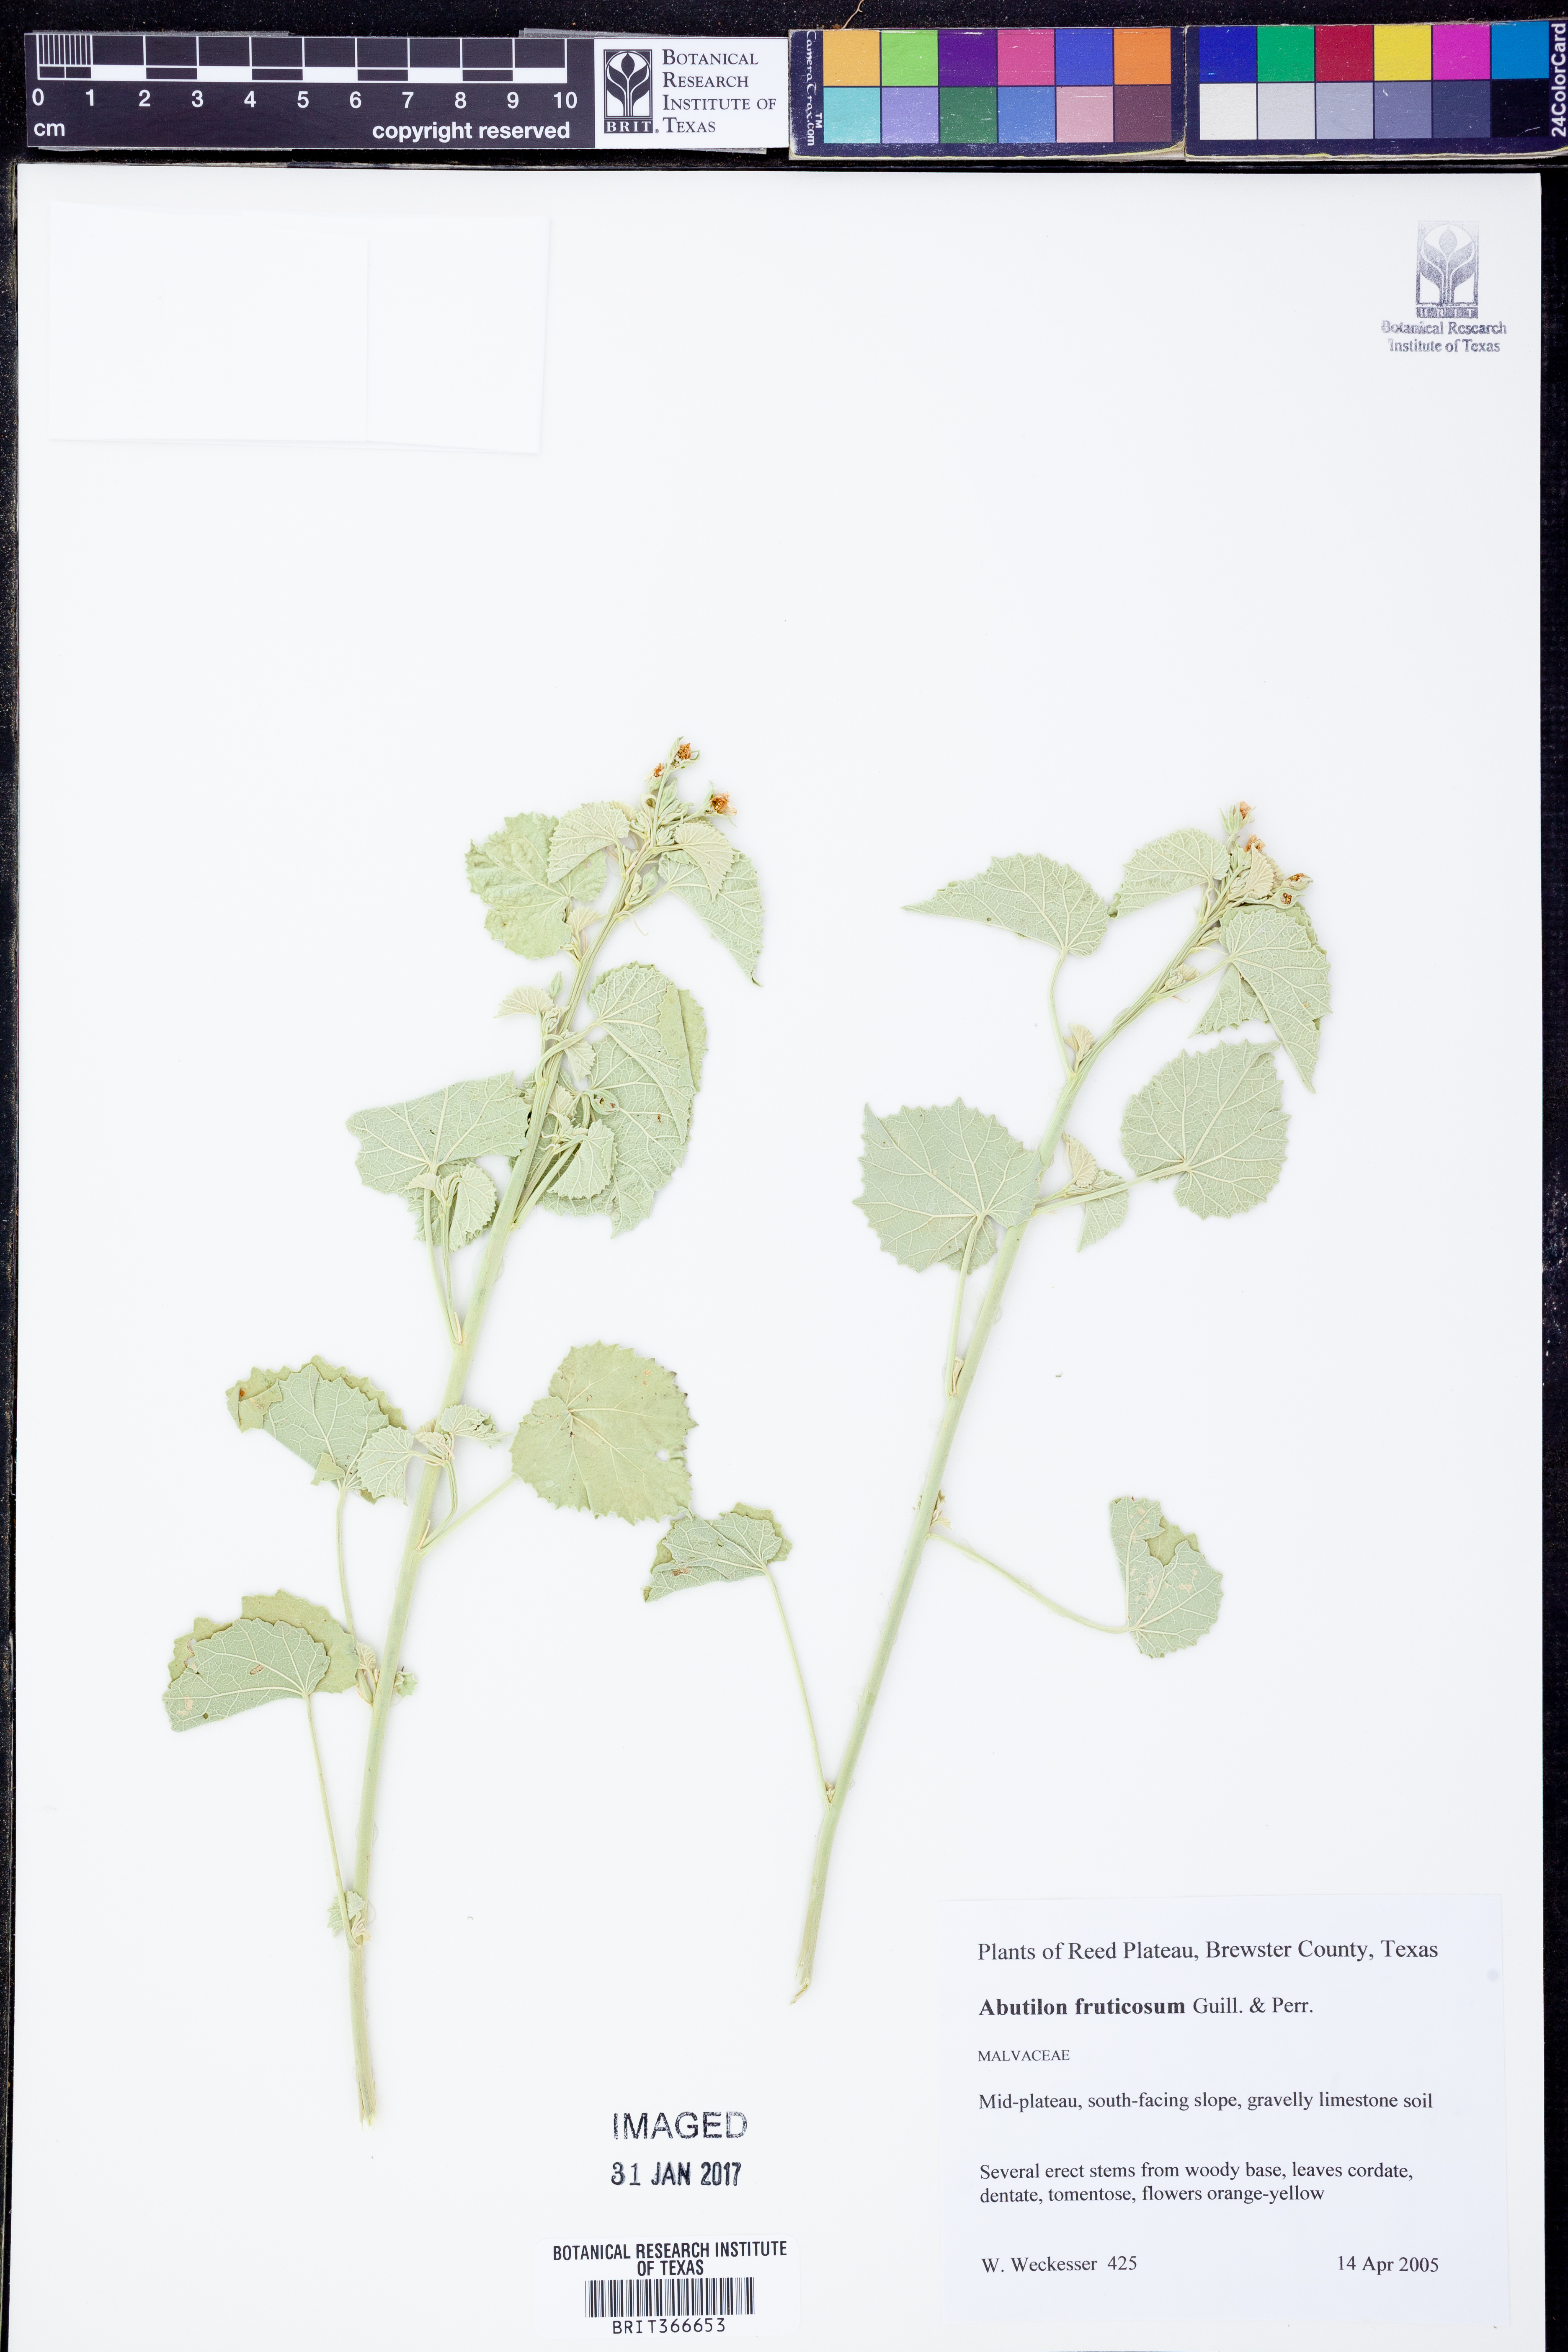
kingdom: Plantae
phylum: Tracheophyta
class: Magnoliopsida
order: Malvales
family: Malvaceae
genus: Abutilon
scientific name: Abutilon fruticosum
